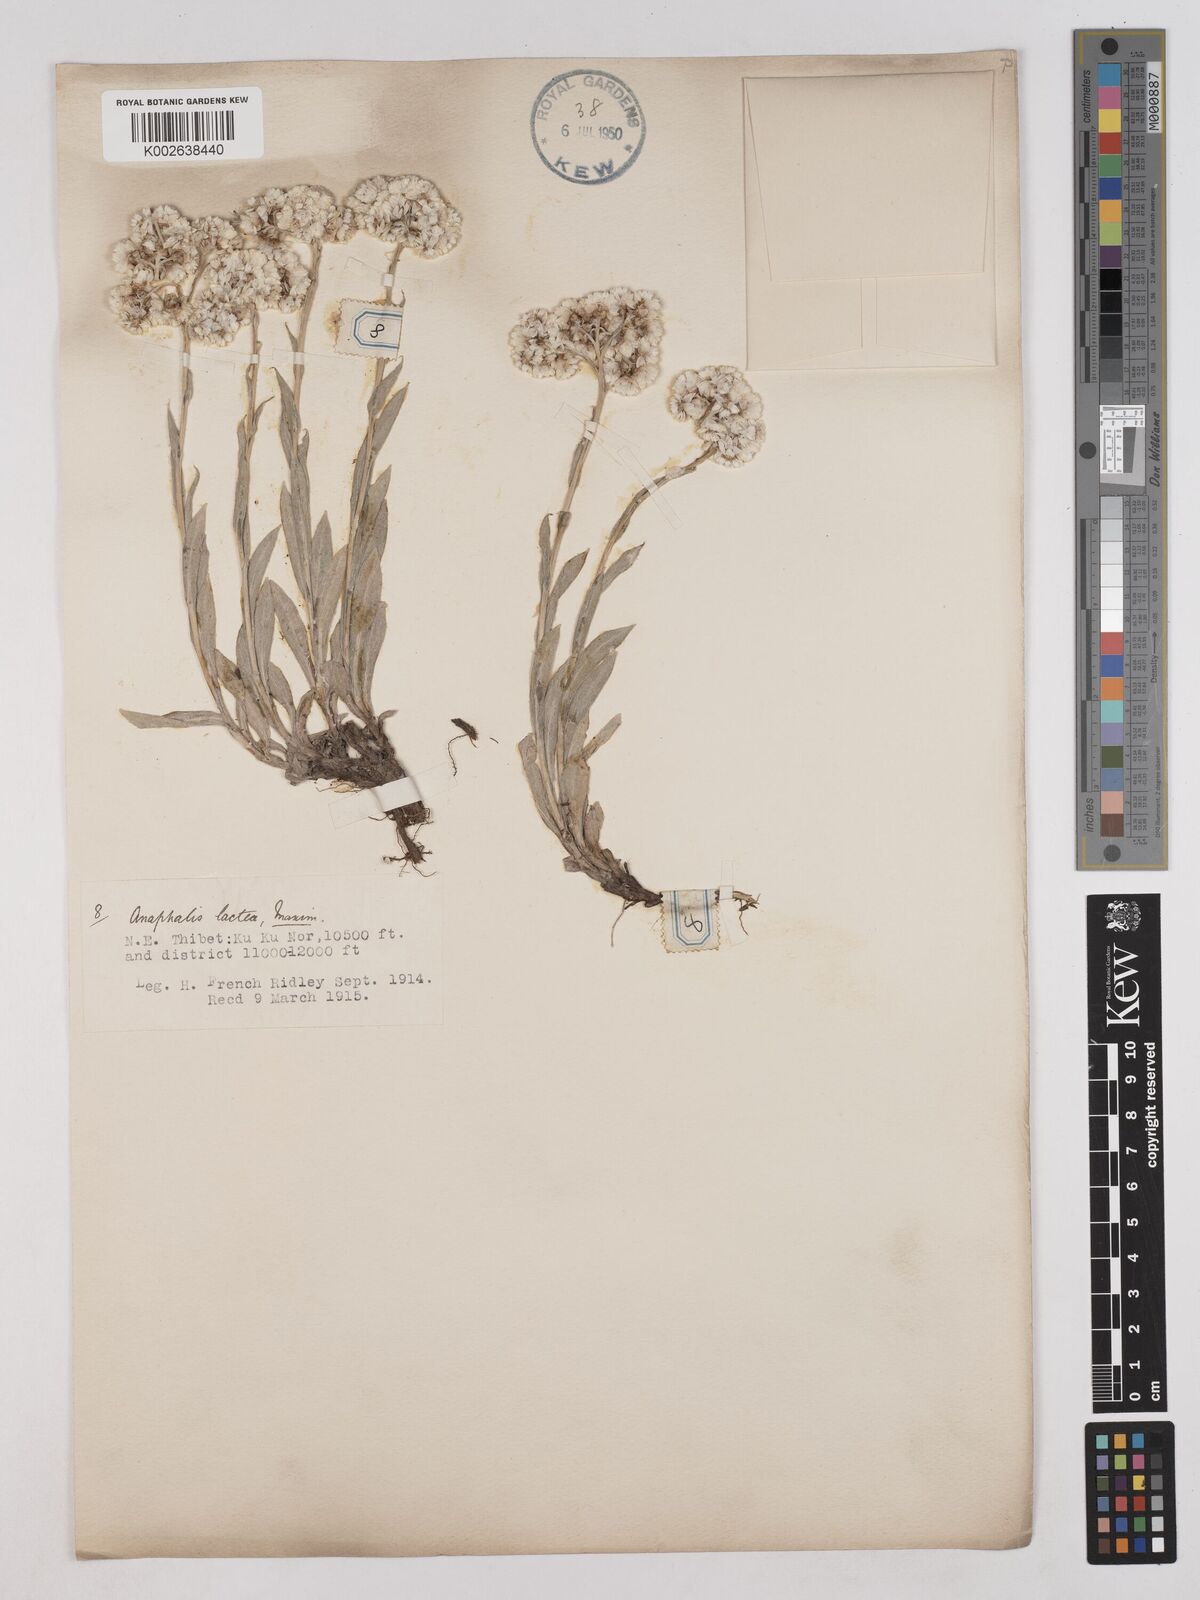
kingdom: Plantae
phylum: Tracheophyta
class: Magnoliopsida
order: Asterales
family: Asteraceae
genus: Anaphalis
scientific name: Anaphalis lactea
